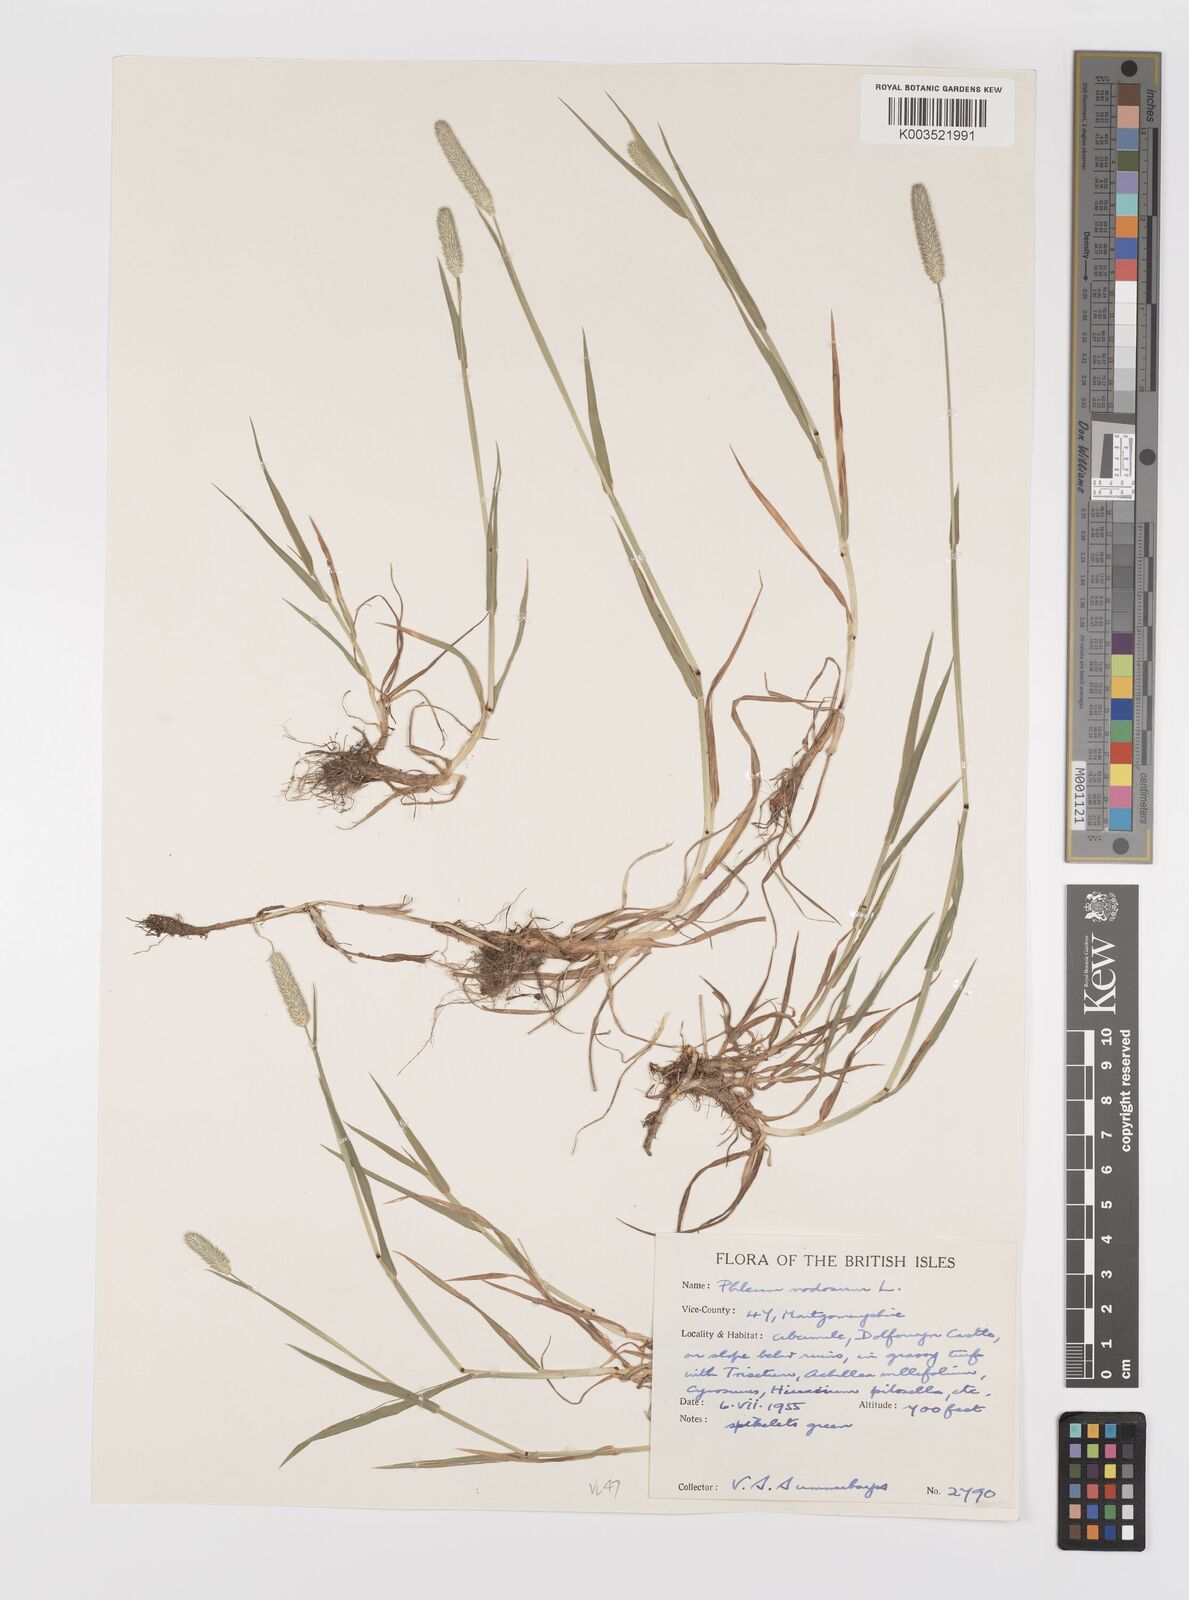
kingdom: Plantae
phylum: Tracheophyta
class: Liliopsida
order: Poales
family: Poaceae
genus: Phleum
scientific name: Phleum bertolonii
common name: Smaller cat's-tail
